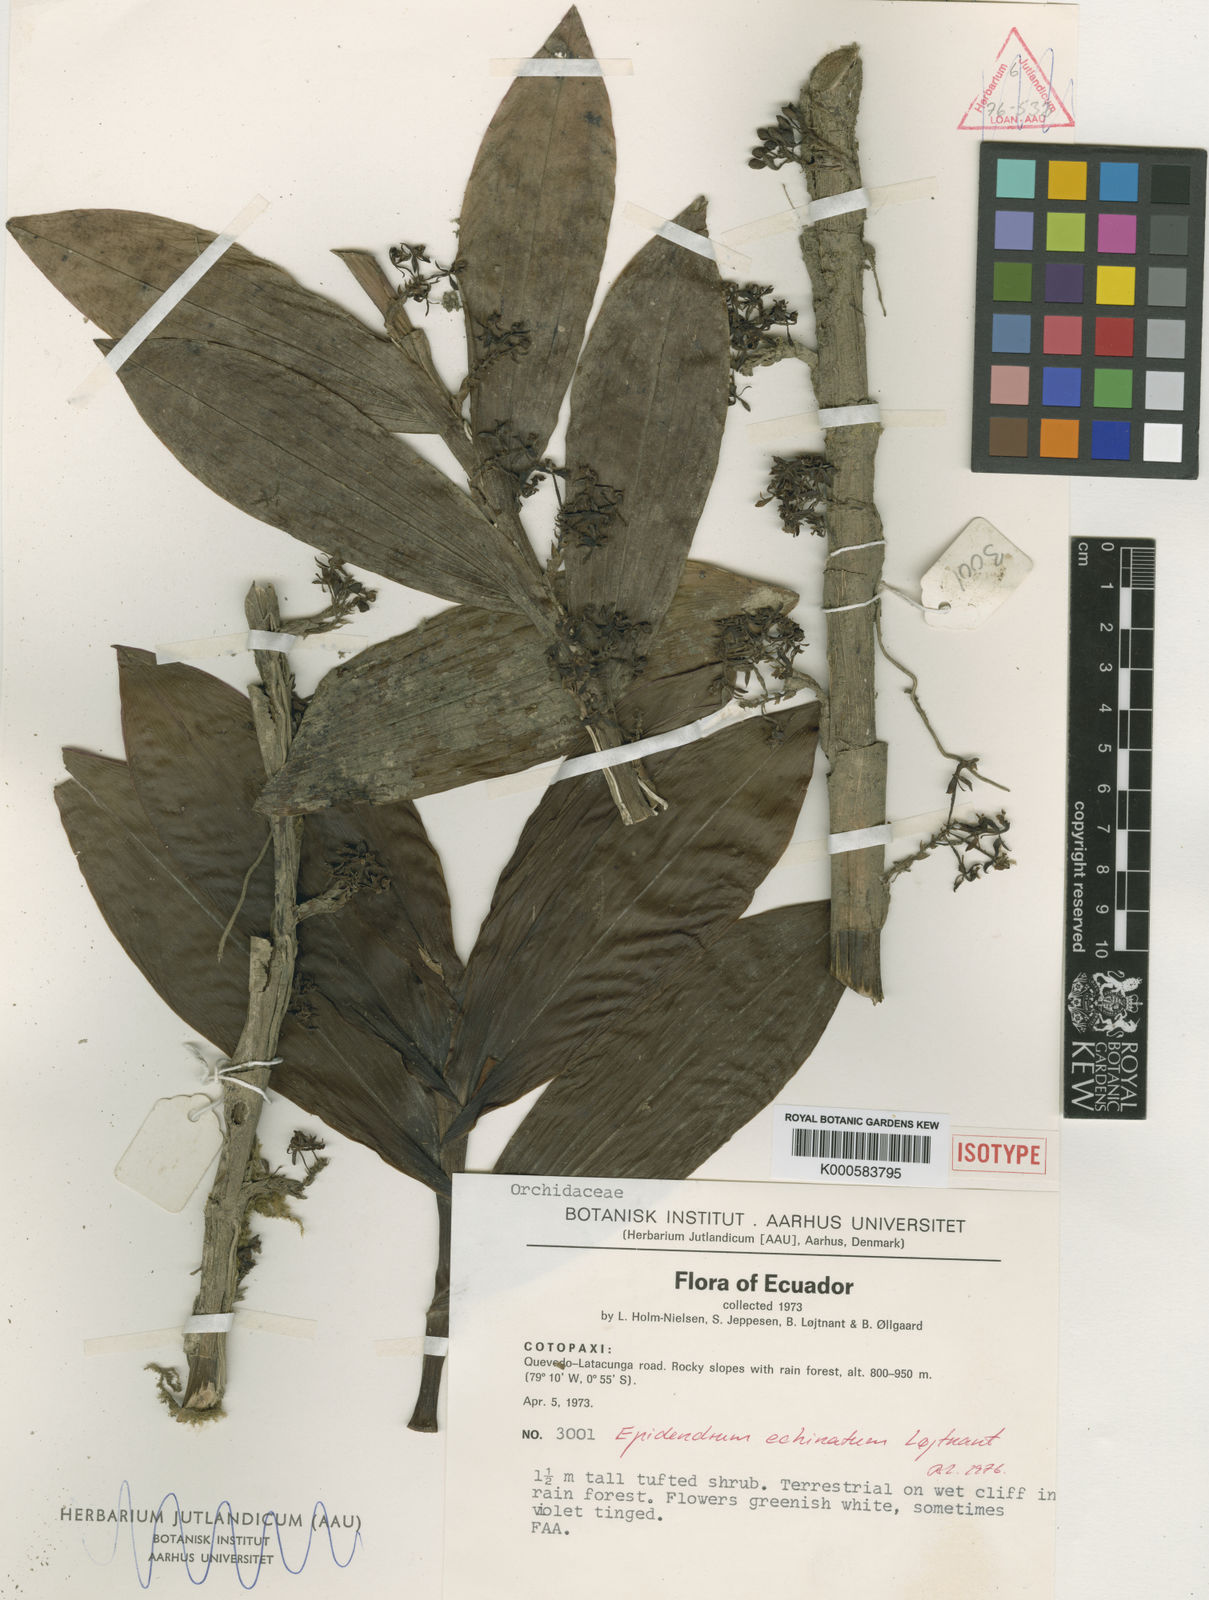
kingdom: Plantae
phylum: Tracheophyta
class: Liliopsida
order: Asparagales
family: Orchidaceae
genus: Epidendrum
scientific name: Epidendrum
